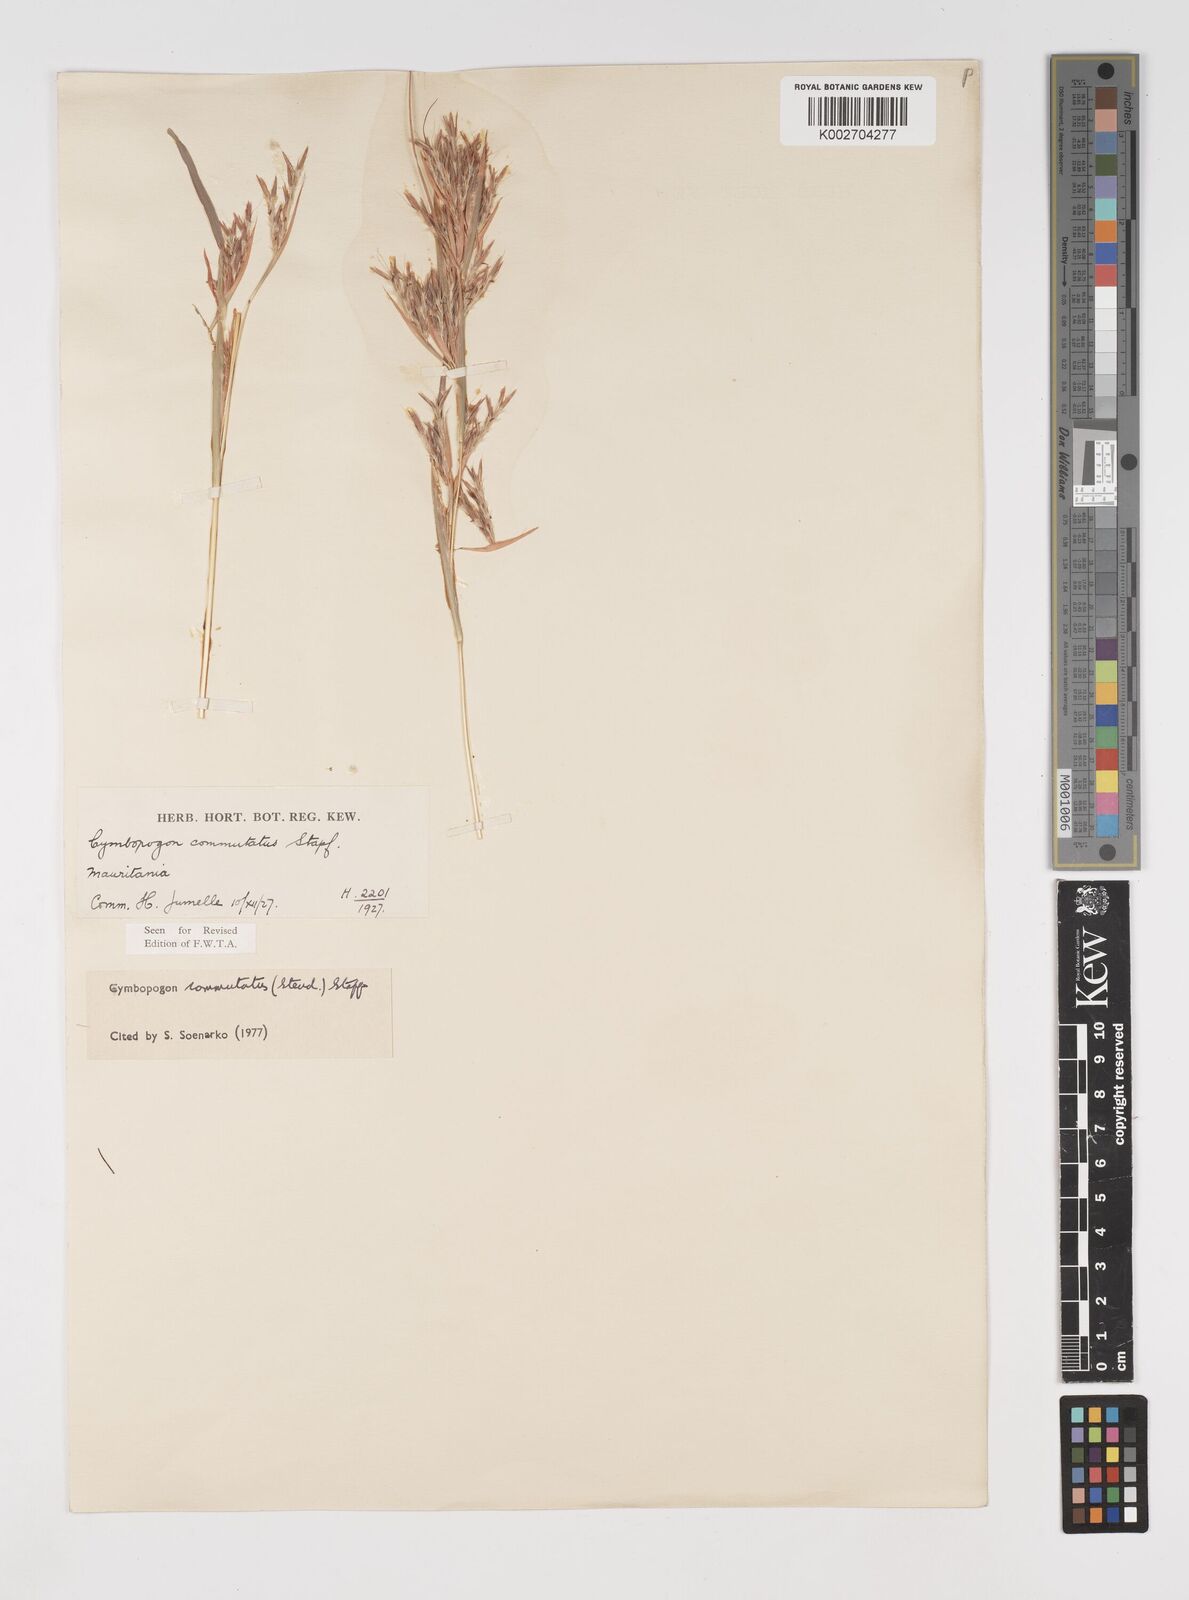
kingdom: Plantae
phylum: Tracheophyta
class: Liliopsida
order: Poales
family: Poaceae
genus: Cymbopogon
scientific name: Cymbopogon commutatus
